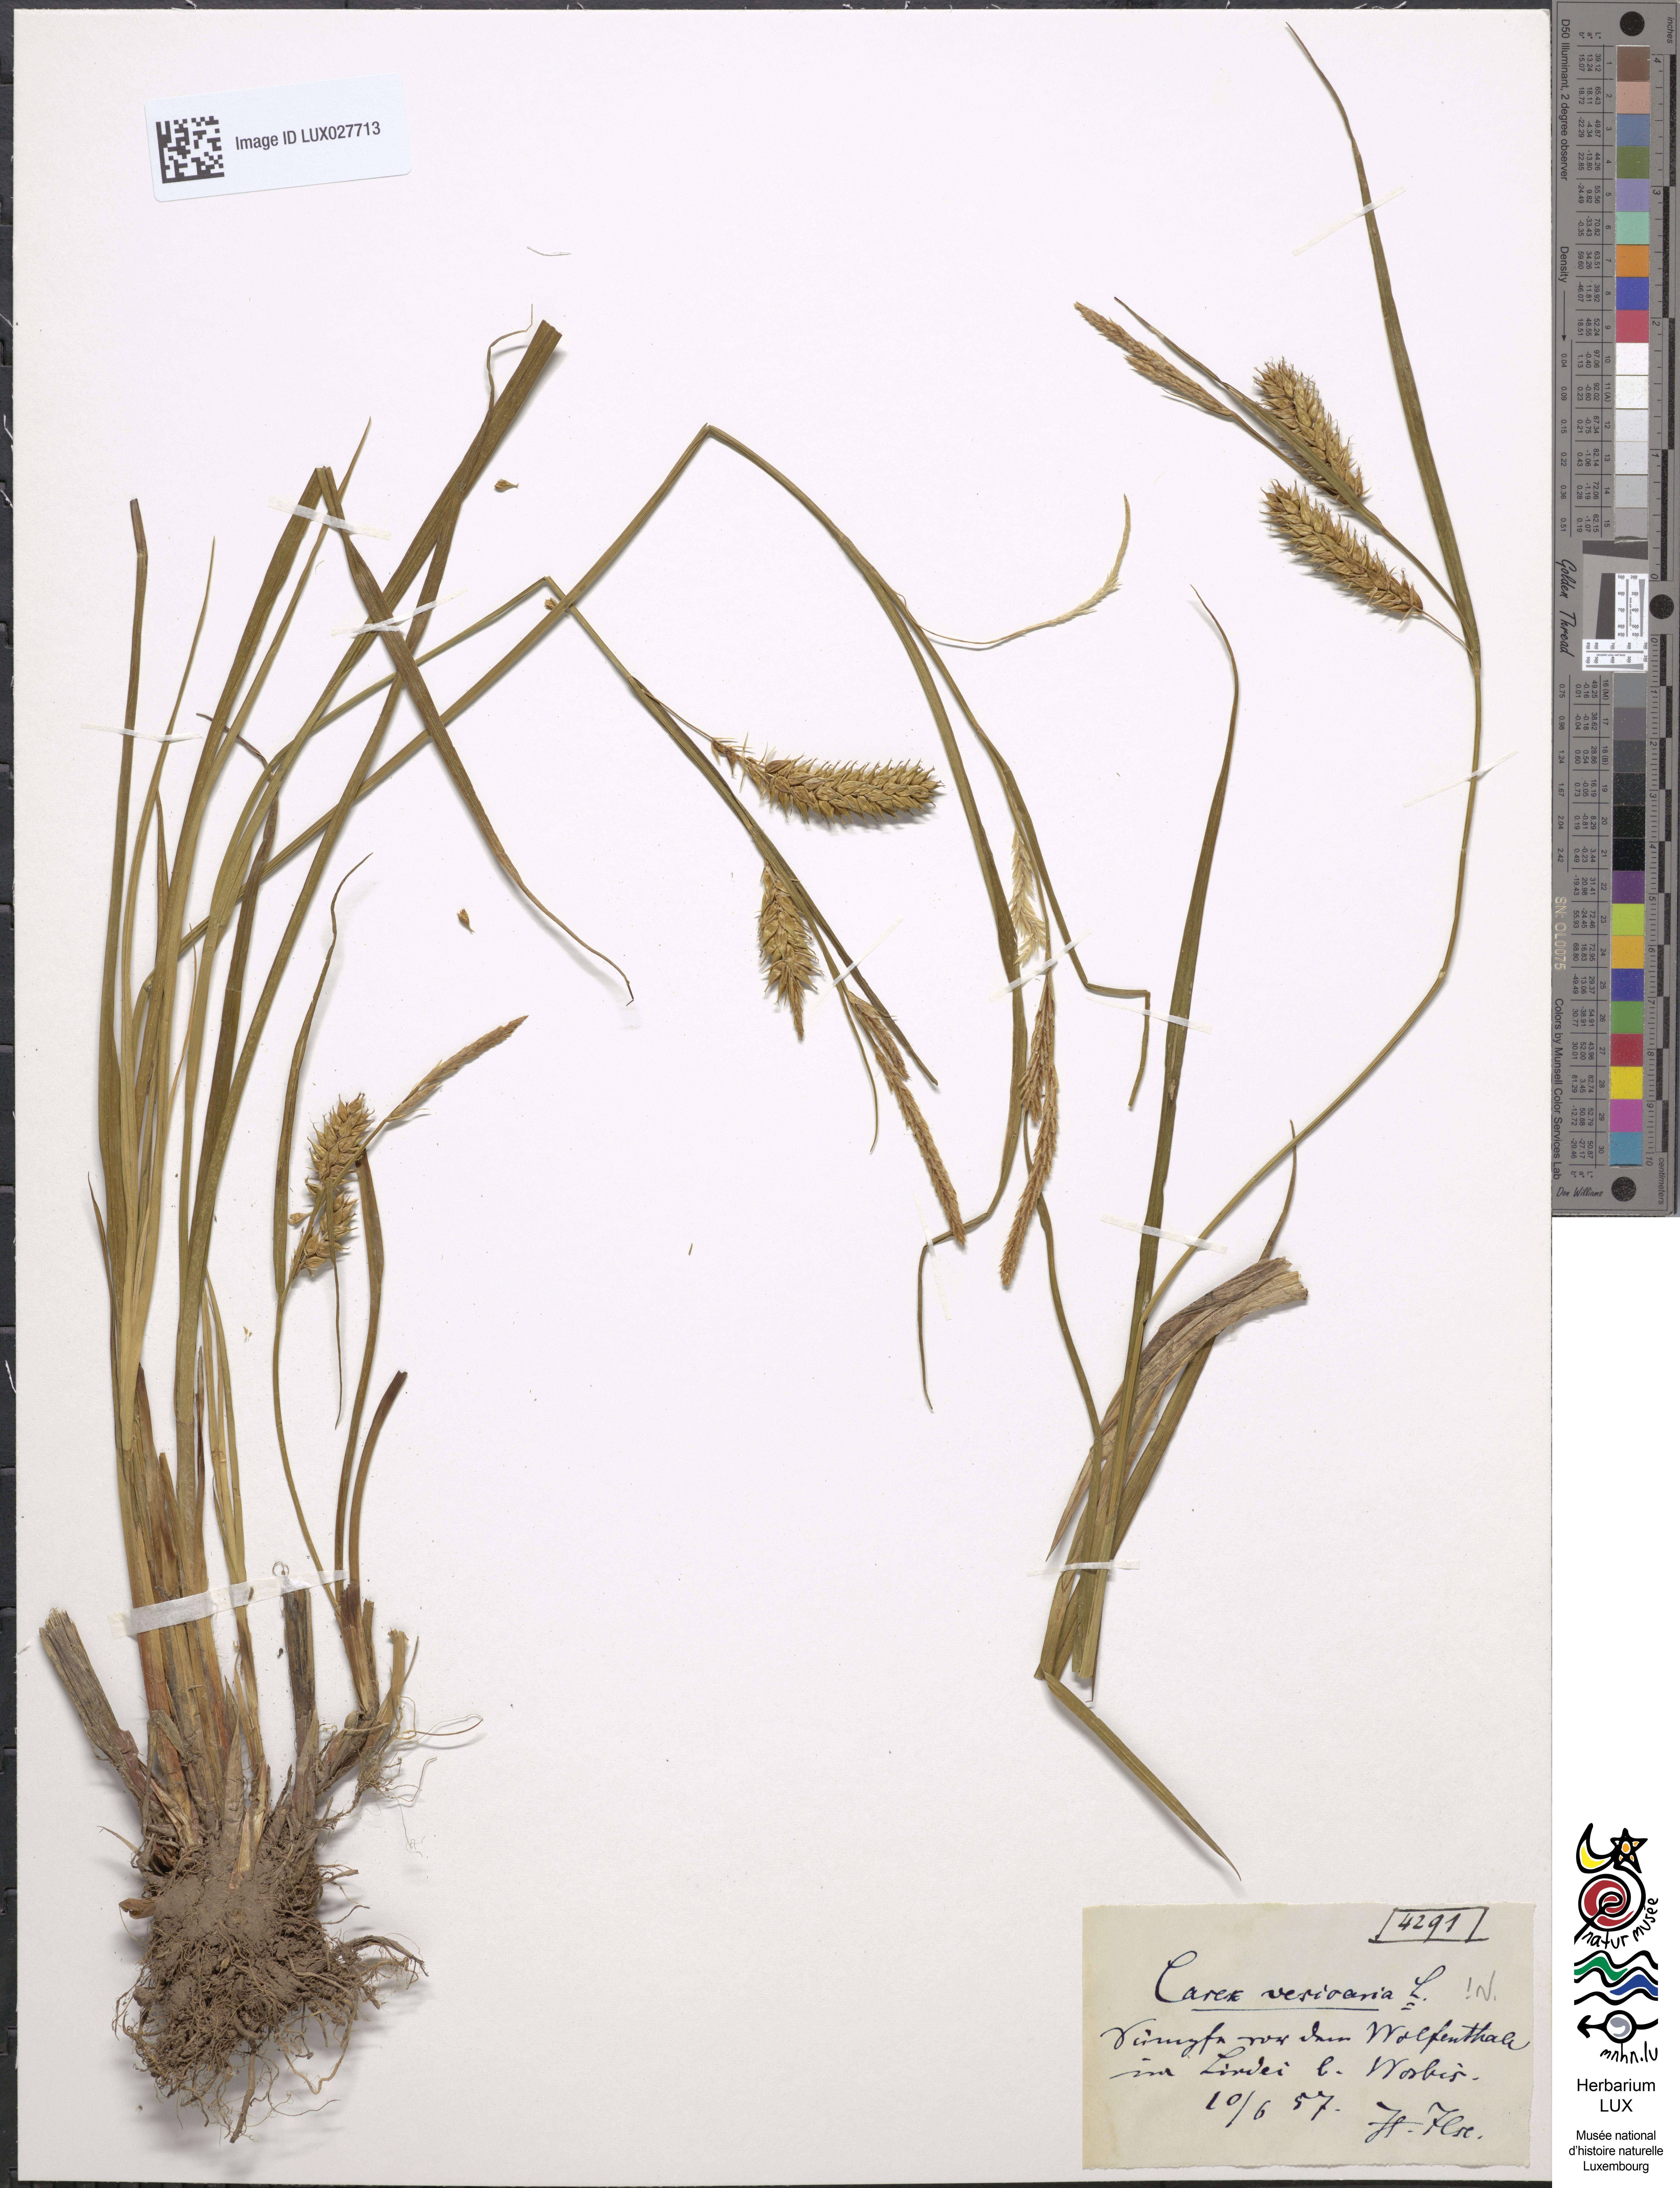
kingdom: Plantae
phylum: Tracheophyta
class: Liliopsida
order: Poales
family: Cyperaceae
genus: Carex
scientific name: Carex vesicaria
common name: Bladder-sedge
